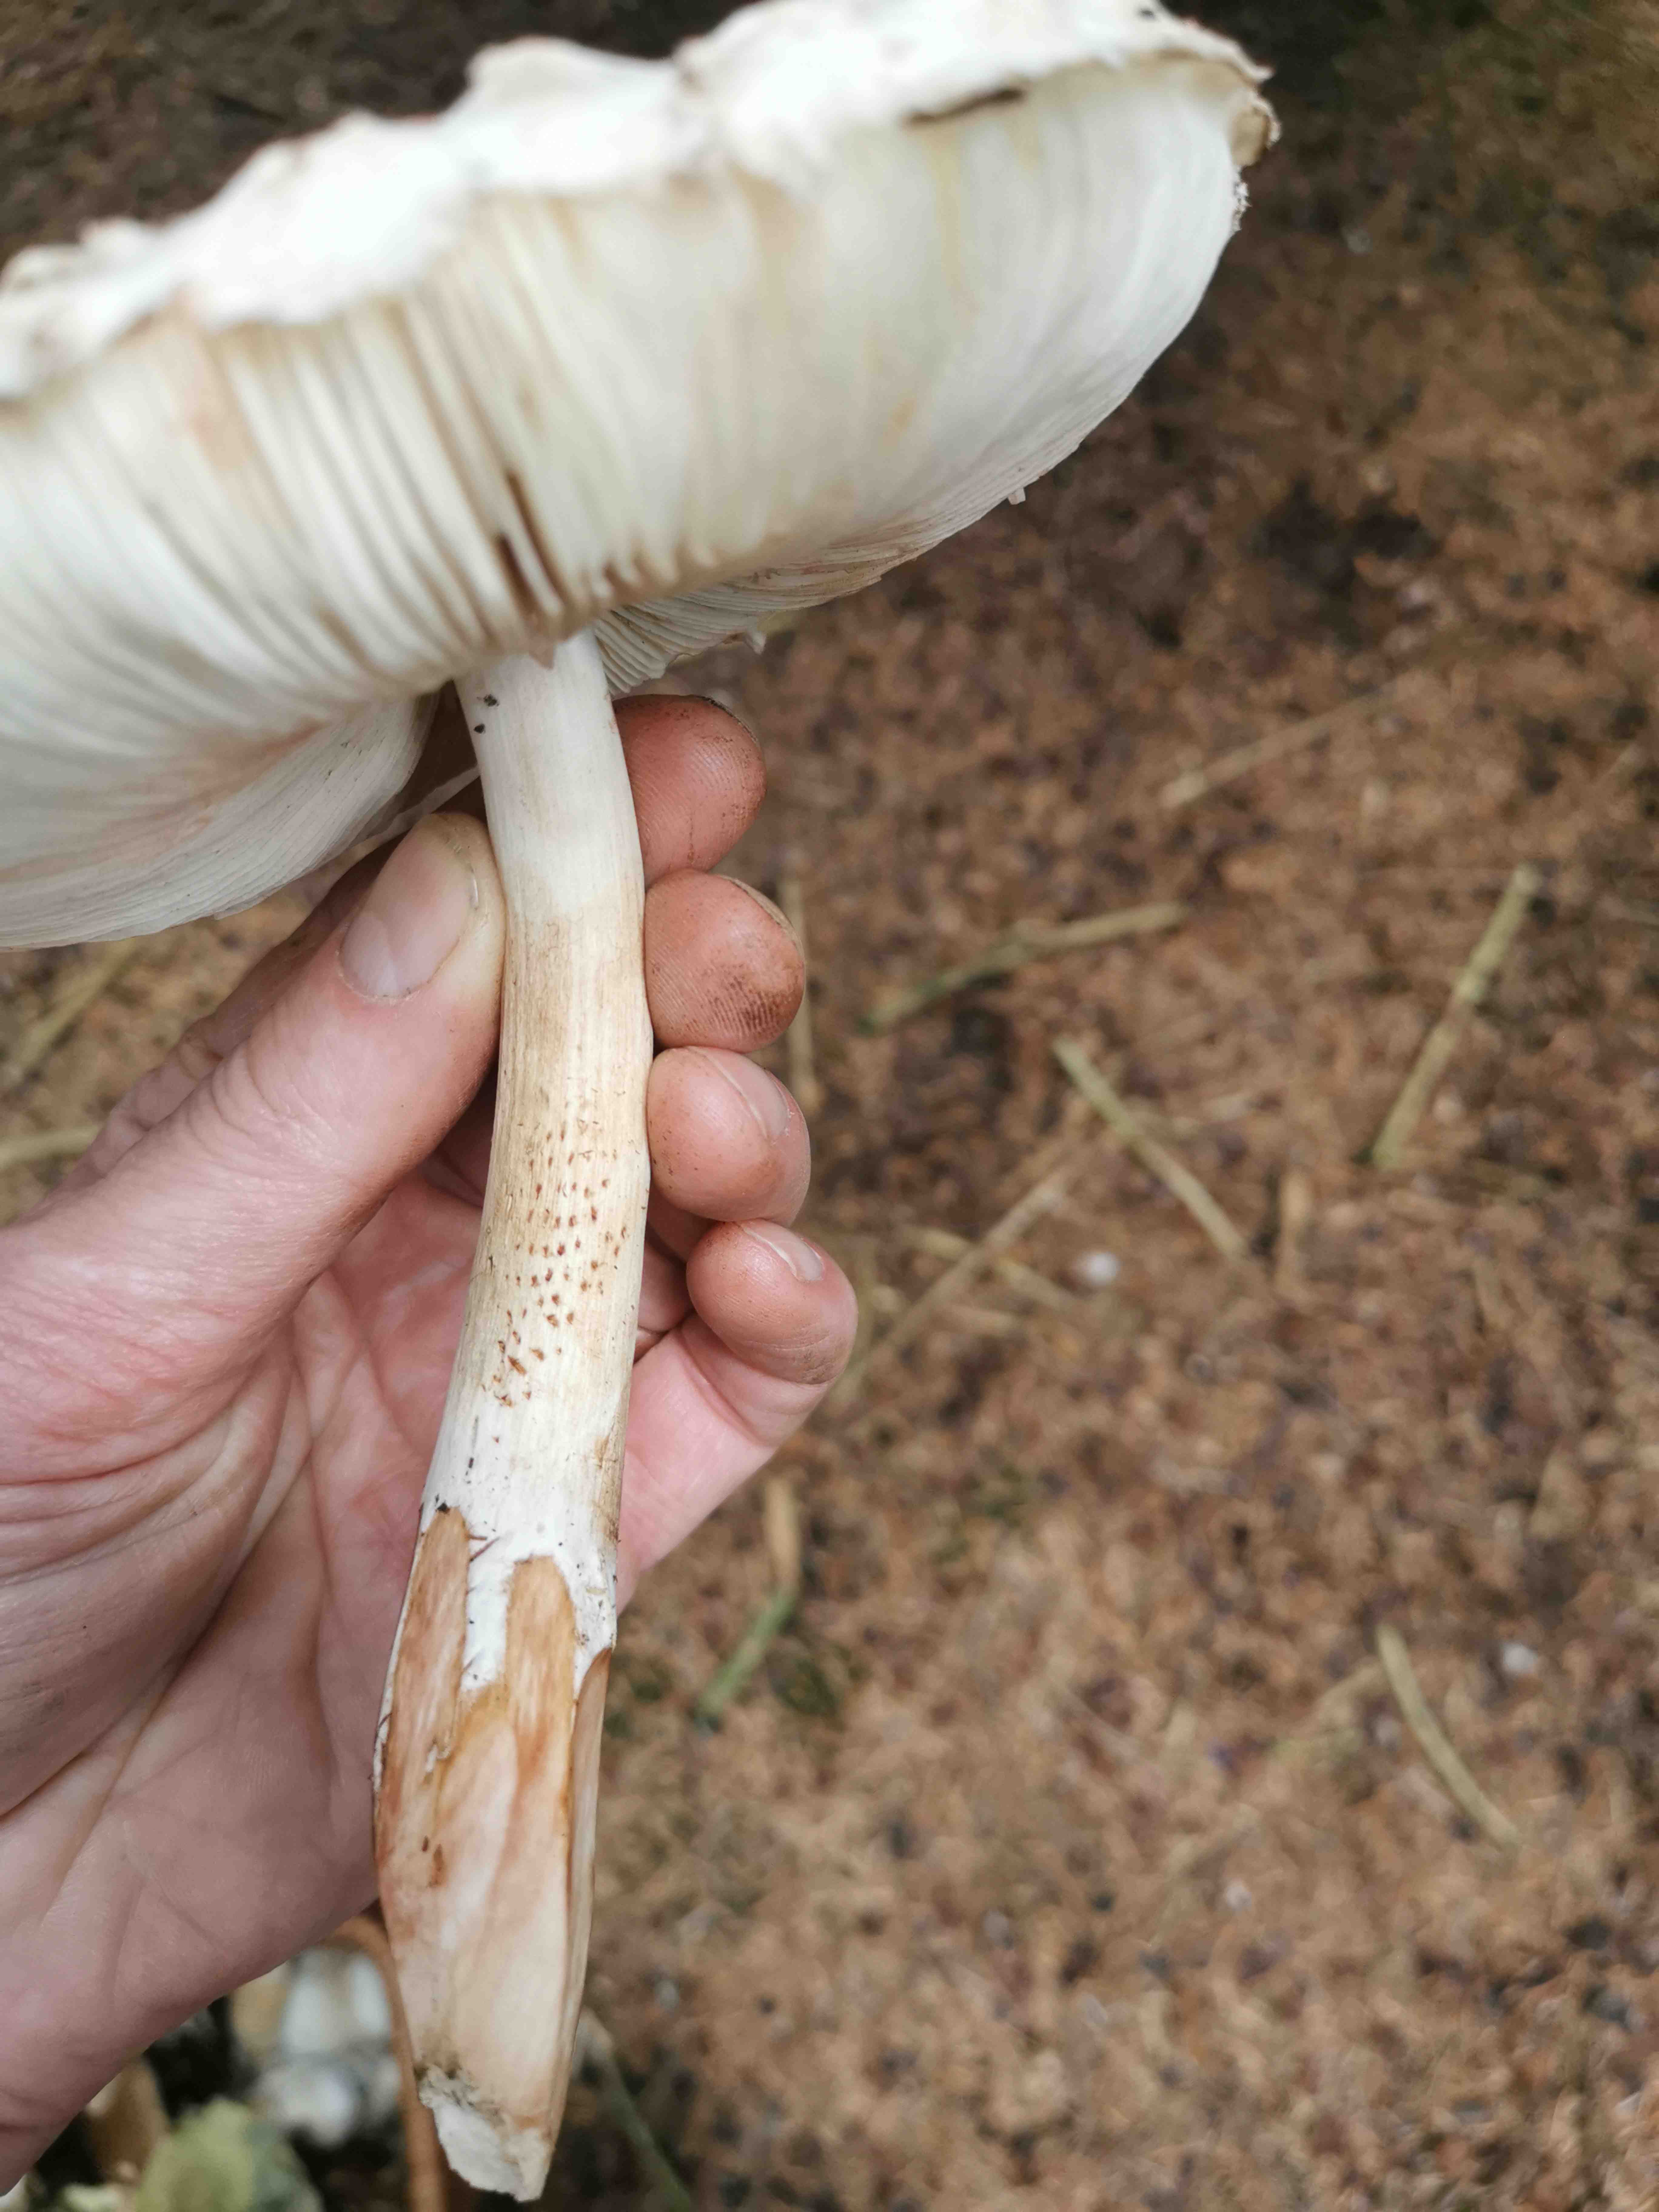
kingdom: Fungi
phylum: Basidiomycota
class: Agaricomycetes
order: Agaricales
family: Agaricaceae
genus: Chlorophyllum
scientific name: Chlorophyllum
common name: rabarberhat
